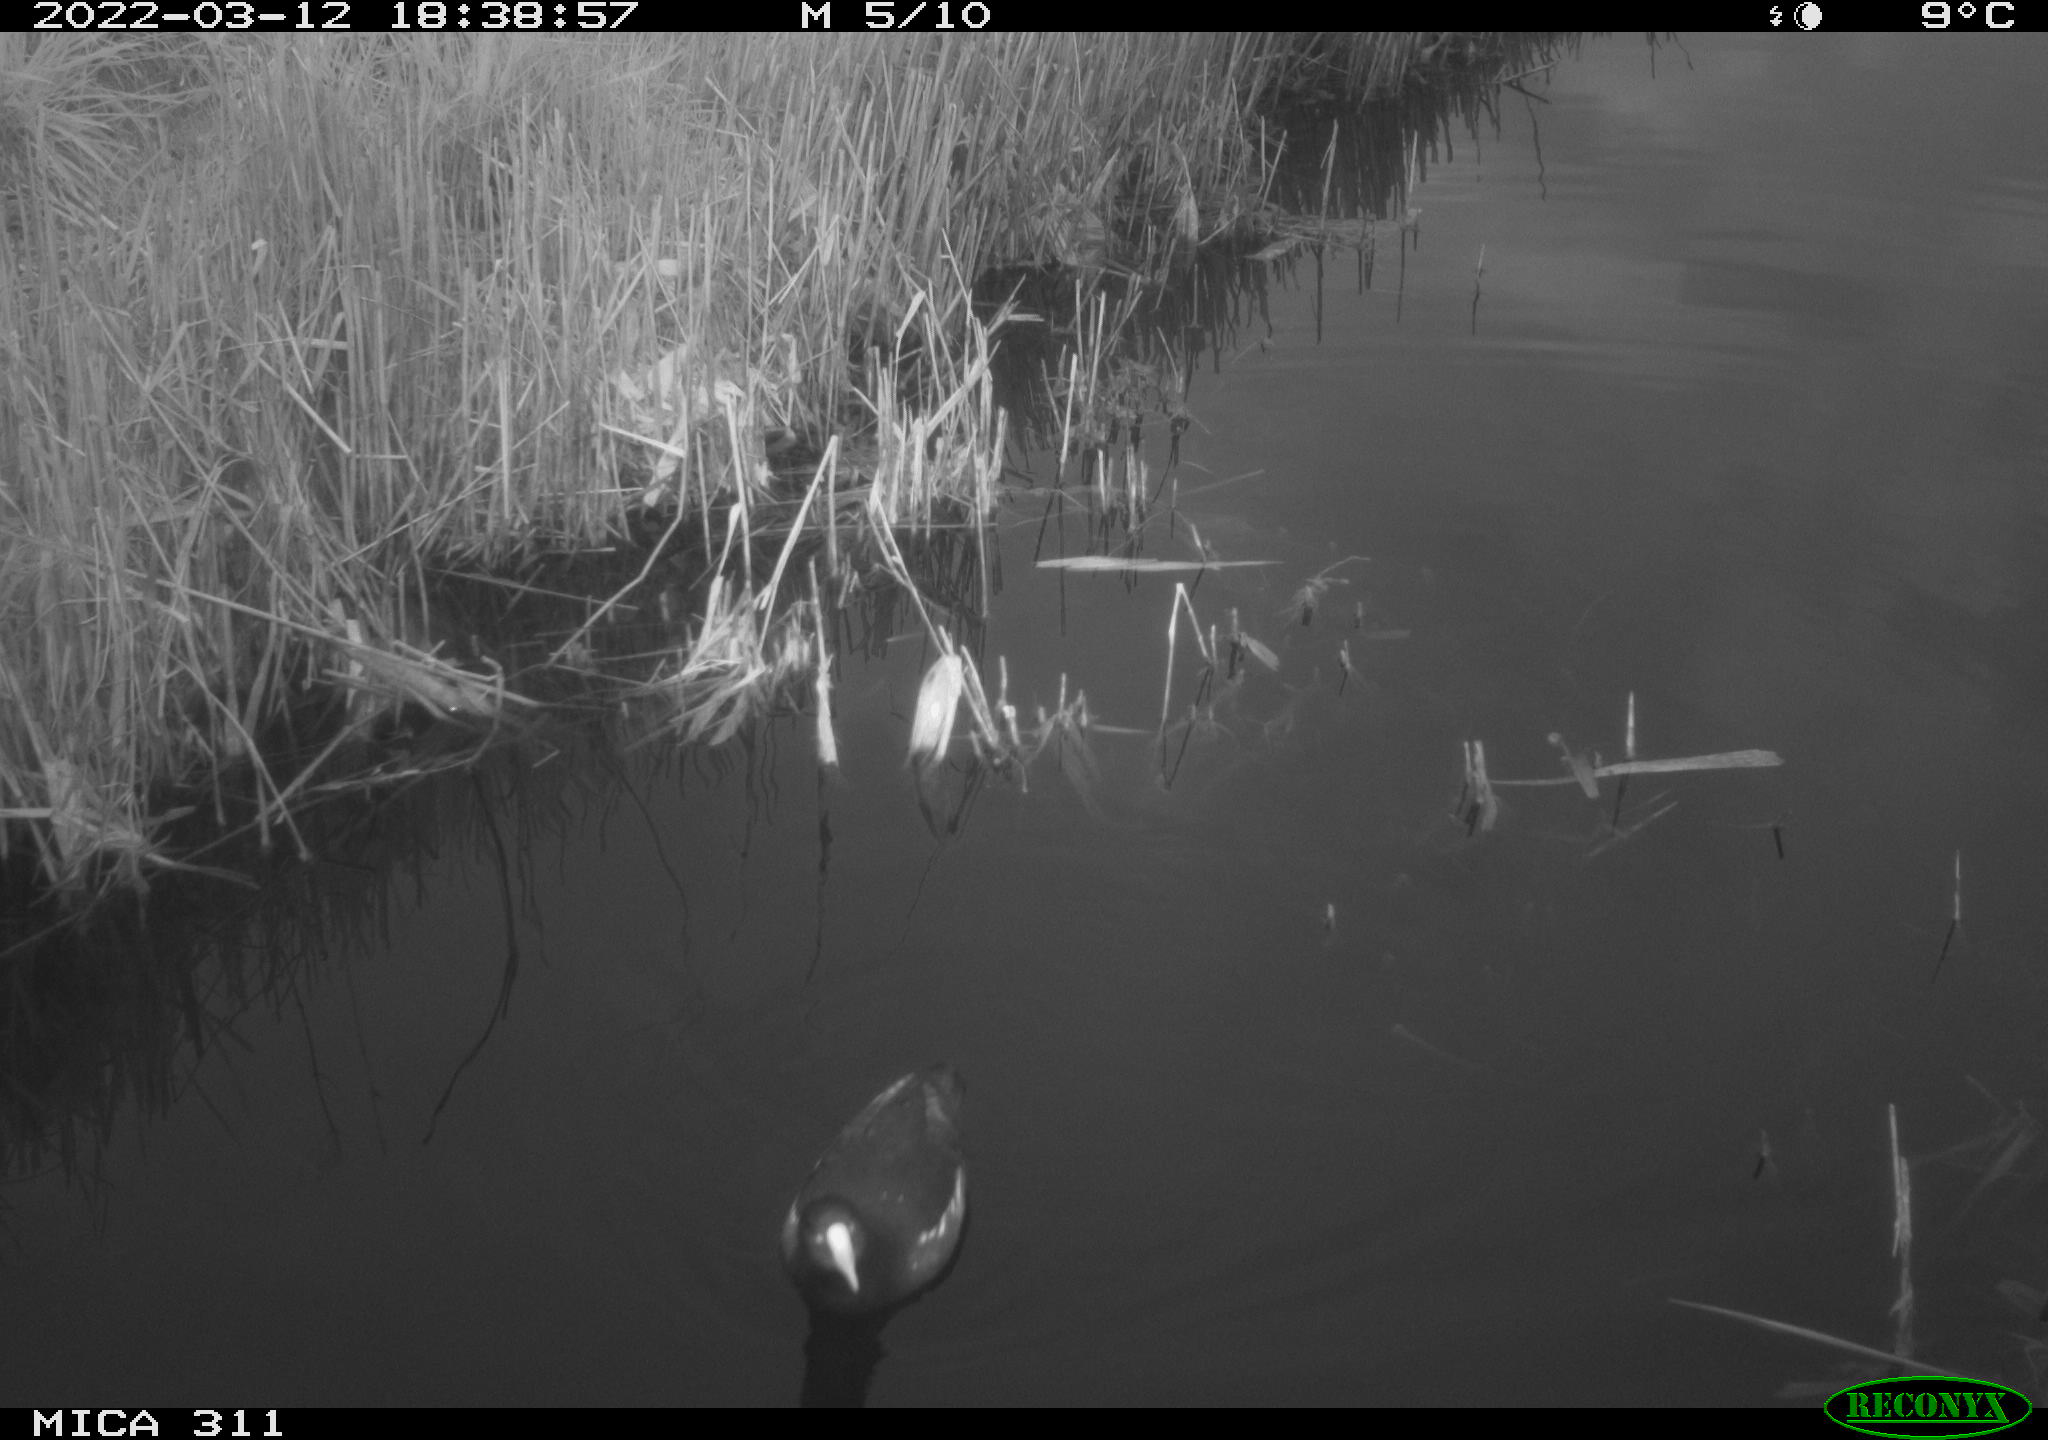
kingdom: Animalia
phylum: Chordata
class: Aves
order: Gruiformes
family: Rallidae
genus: Gallinula
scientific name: Gallinula chloropus
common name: Common moorhen
